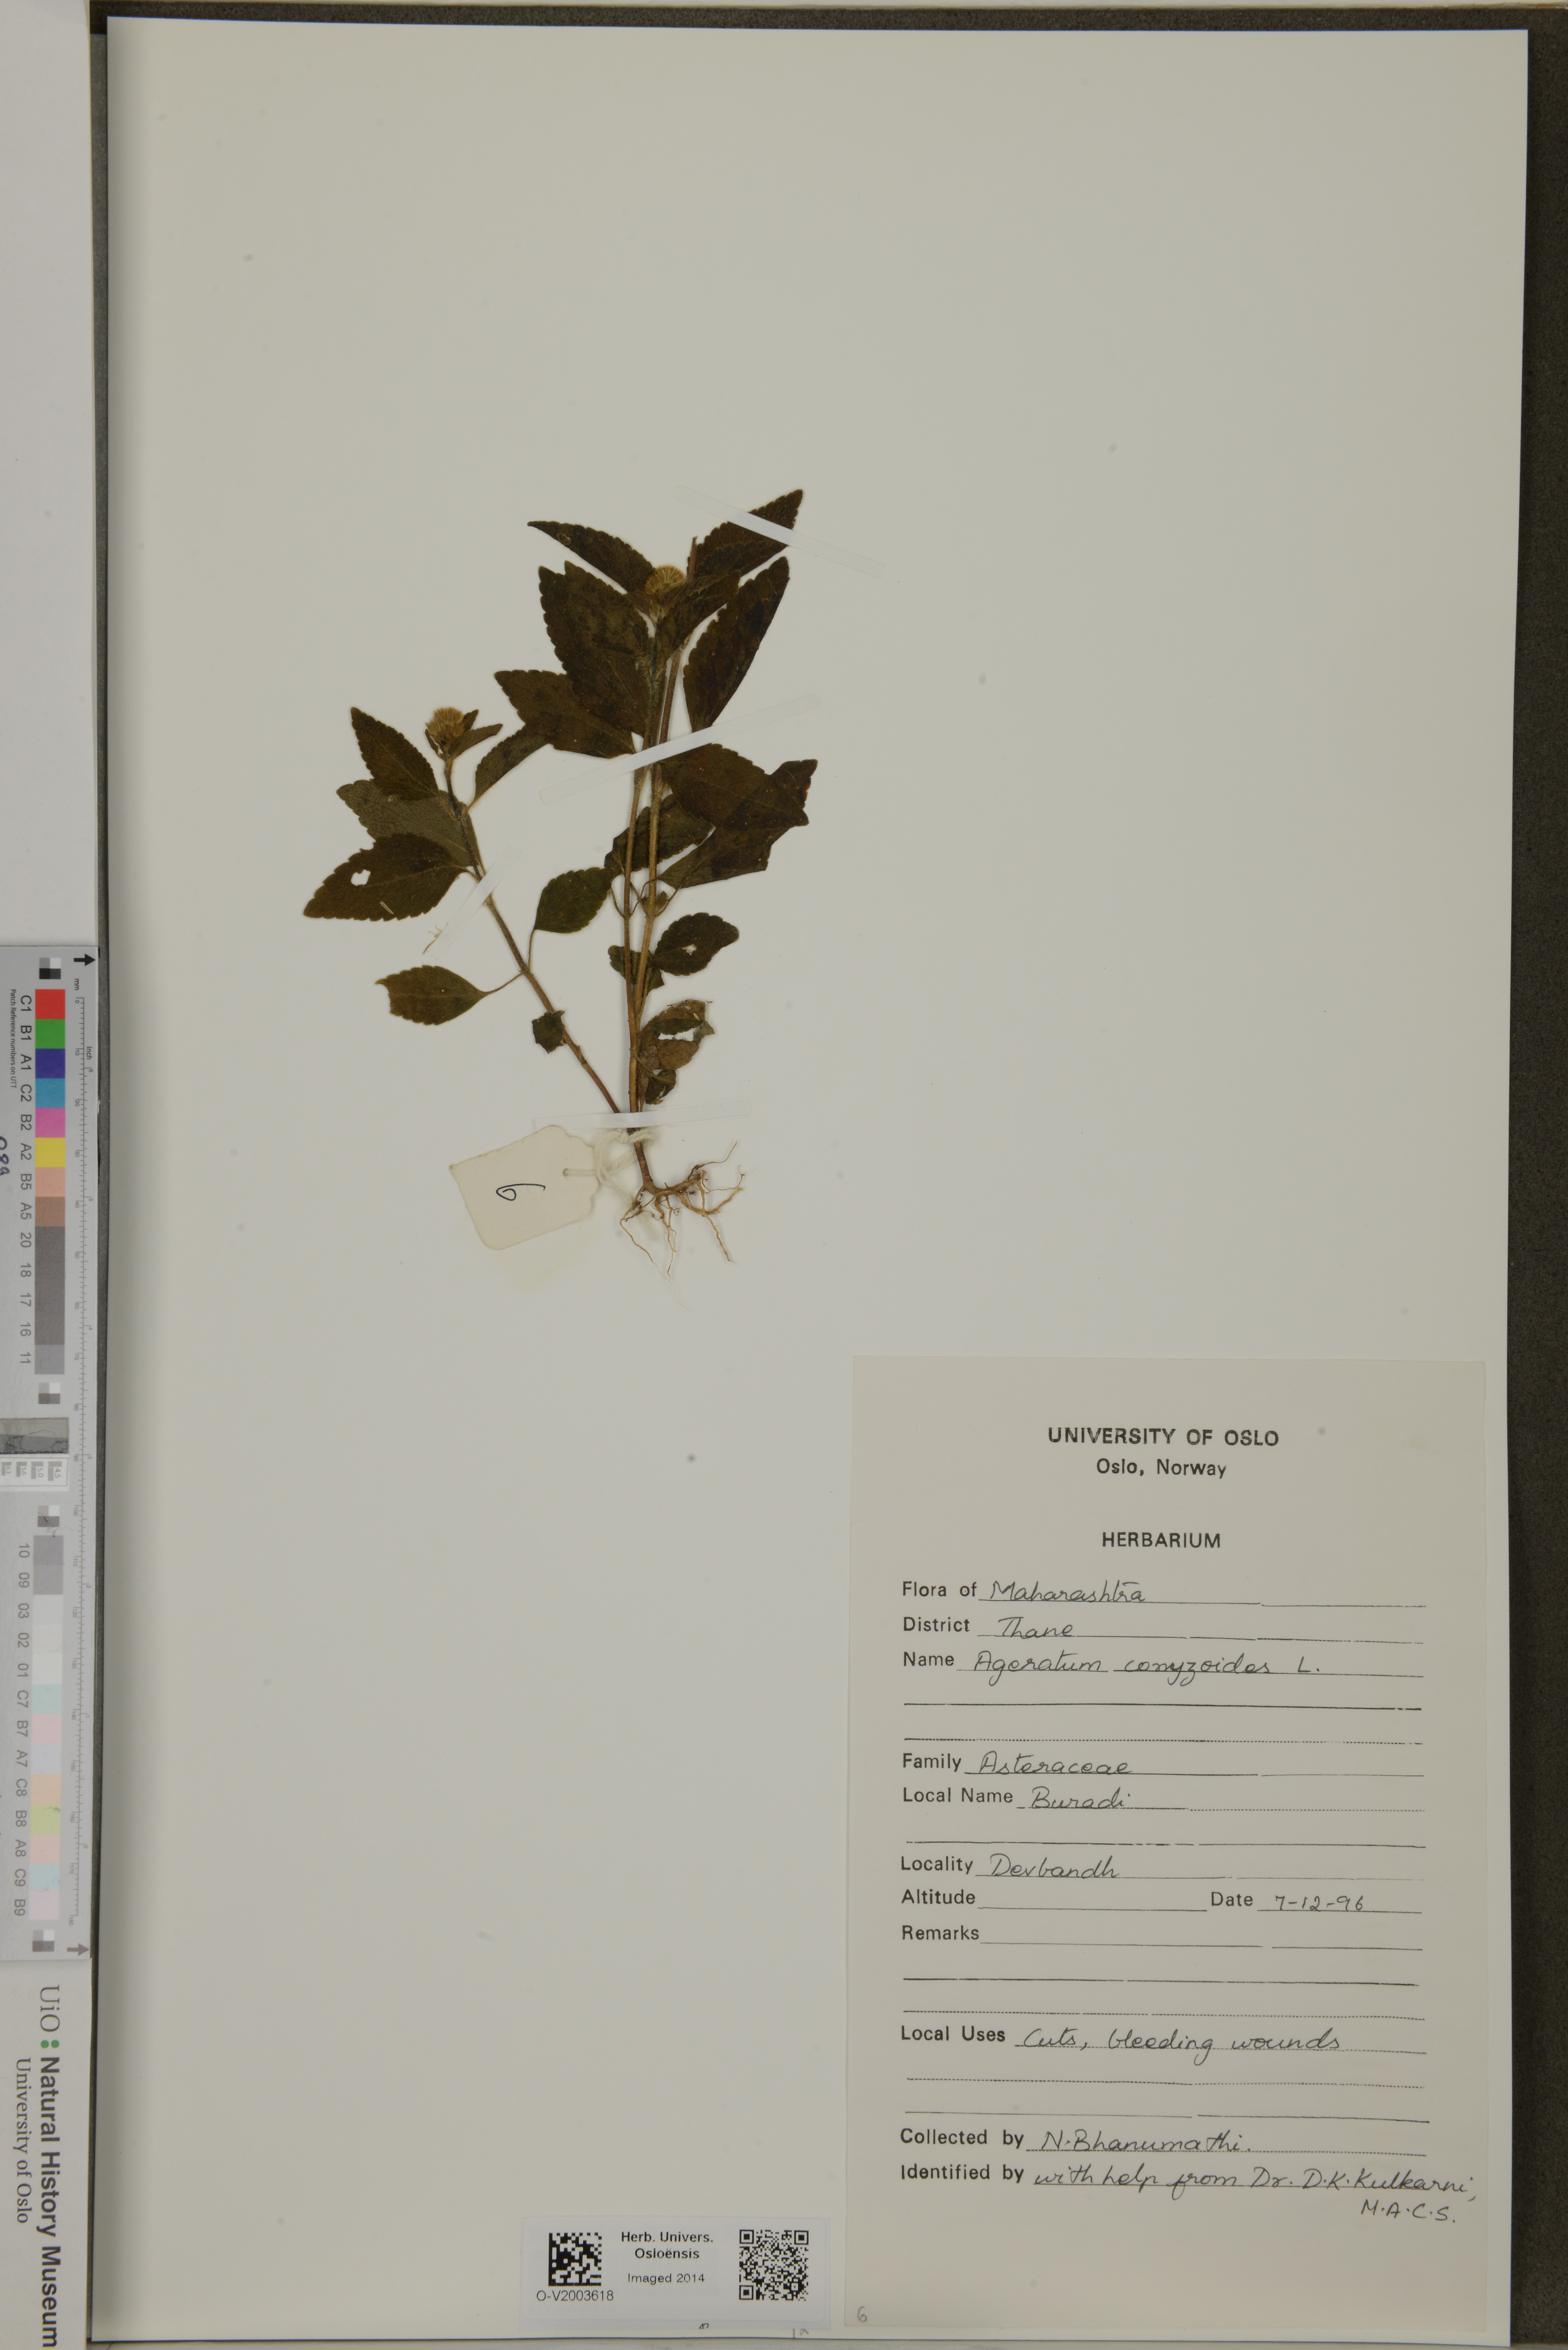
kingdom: Plantae
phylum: Tracheophyta
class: Magnoliopsida
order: Asterales
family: Asteraceae
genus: Ageratum
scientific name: Ageratum conyzoides
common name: Tropical whiteweed
